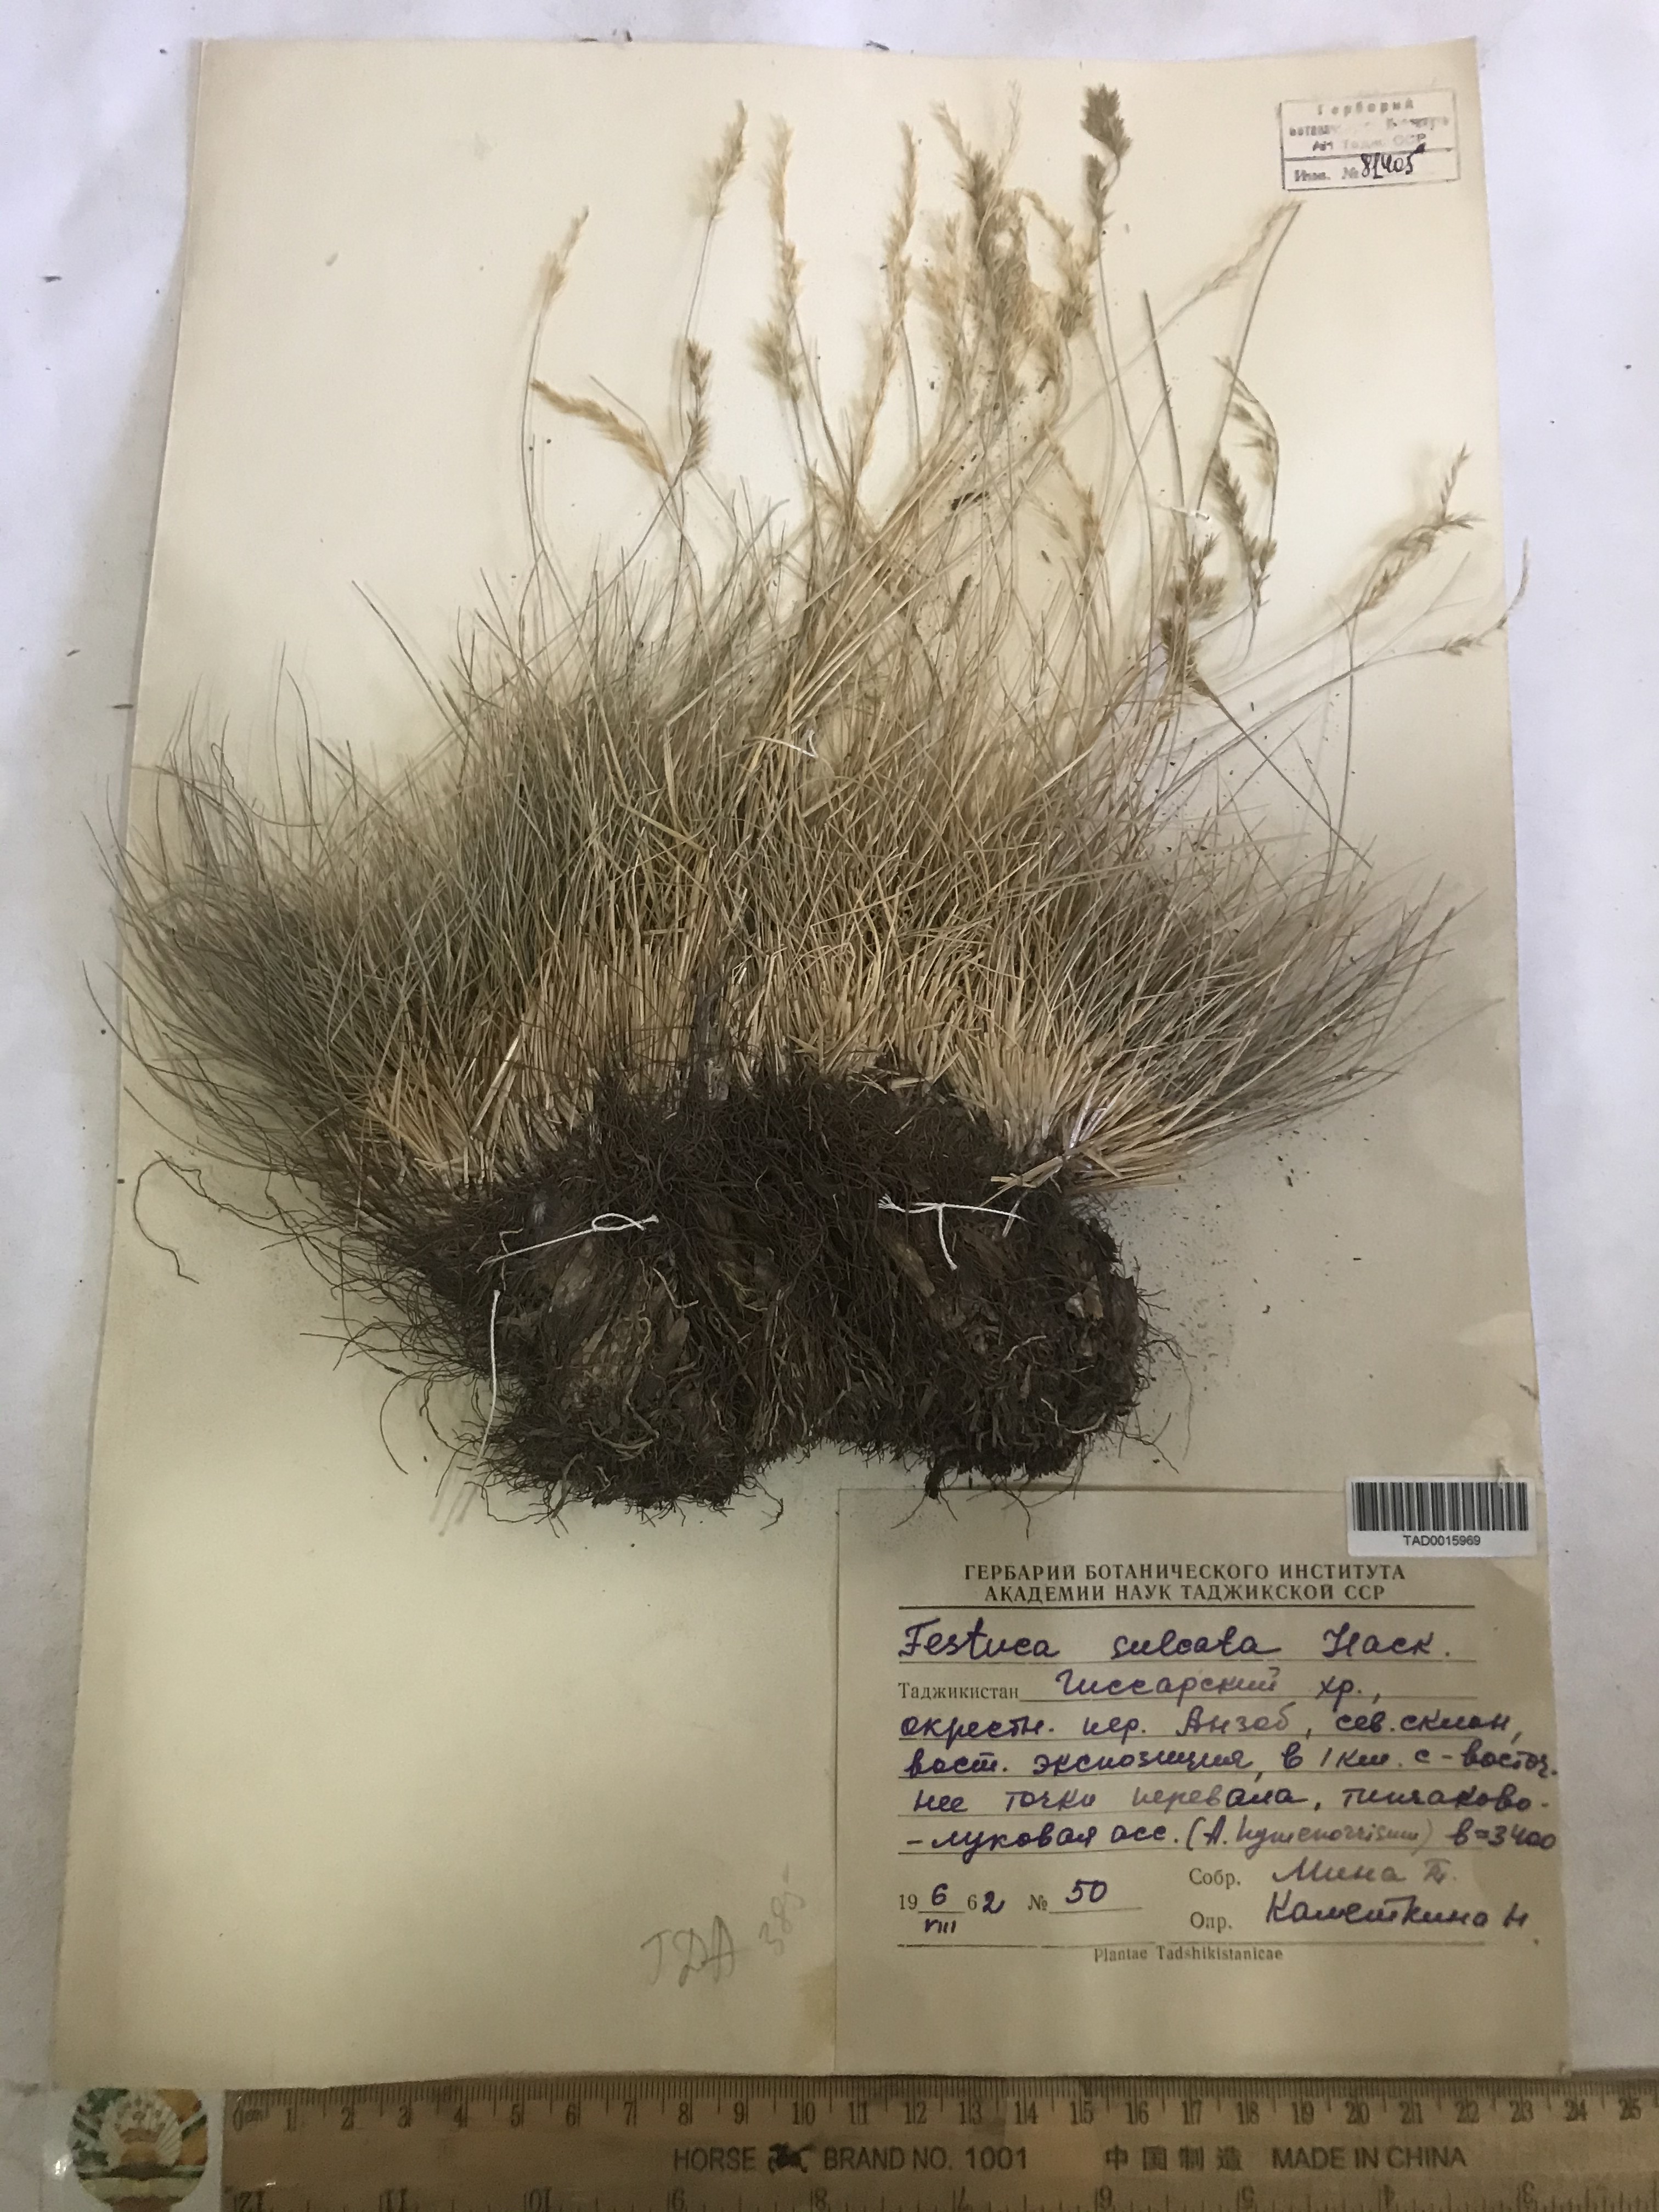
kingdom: Plantae
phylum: Tracheophyta
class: Liliopsida
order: Poales
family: Poaceae
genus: Festuca
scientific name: Festuca sulcata
